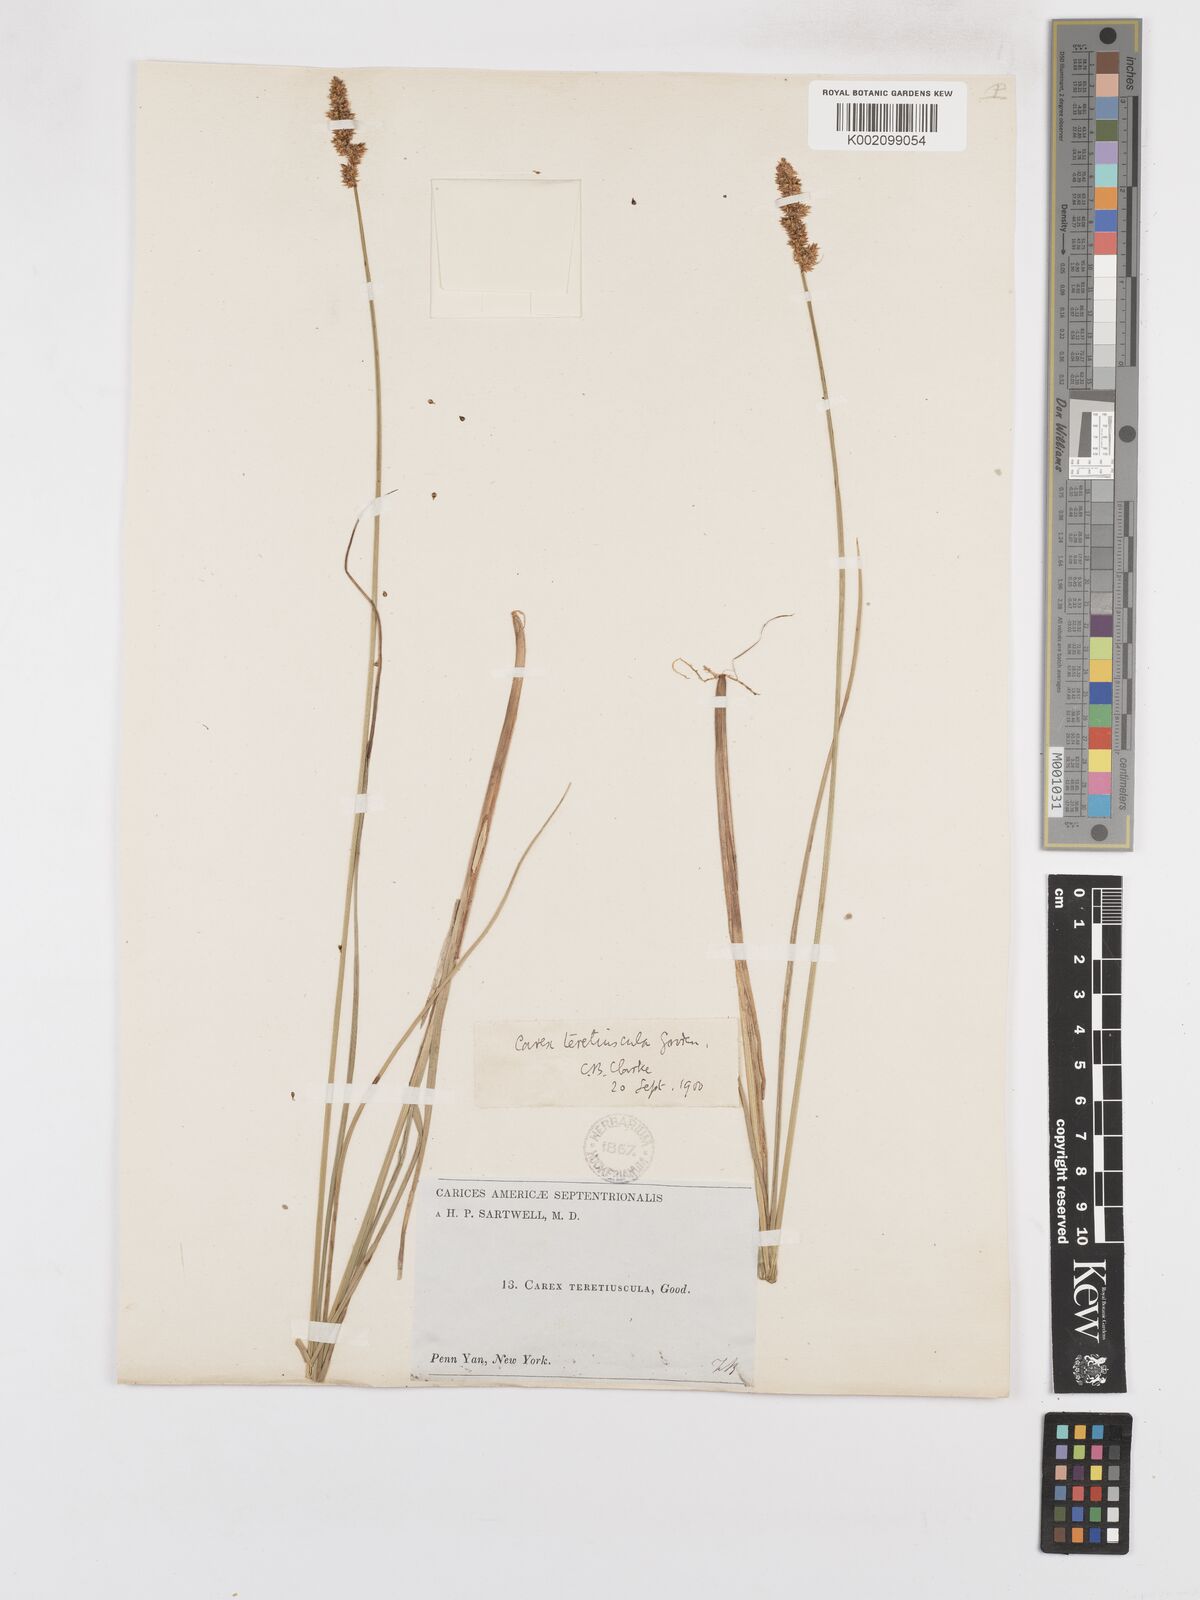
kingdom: Plantae
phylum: Tracheophyta
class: Liliopsida
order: Poales
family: Cyperaceae
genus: Carex
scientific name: Carex diandra
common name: Lesser tussock-sedge
